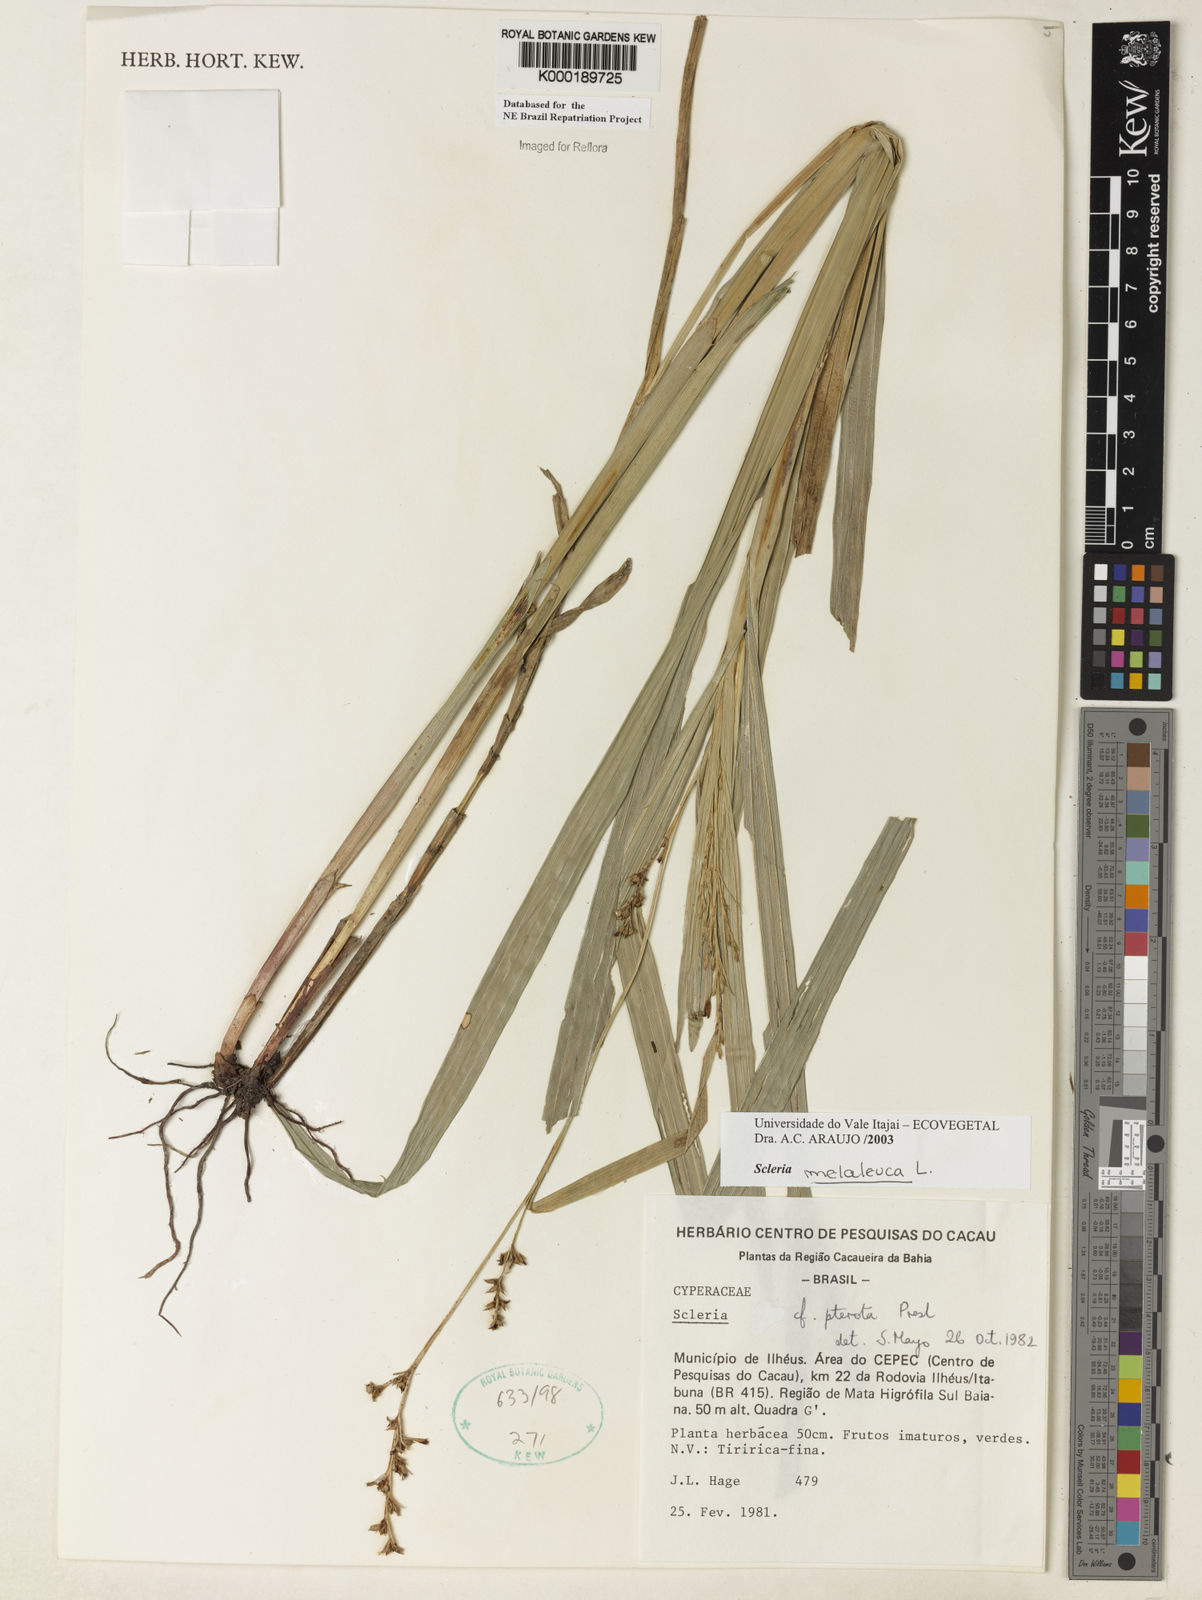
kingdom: Plantae
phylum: Tracheophyta
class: Liliopsida
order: Poales
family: Cyperaceae
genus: Scleria
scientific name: Scleria gaertneri
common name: Cortadera blanca
